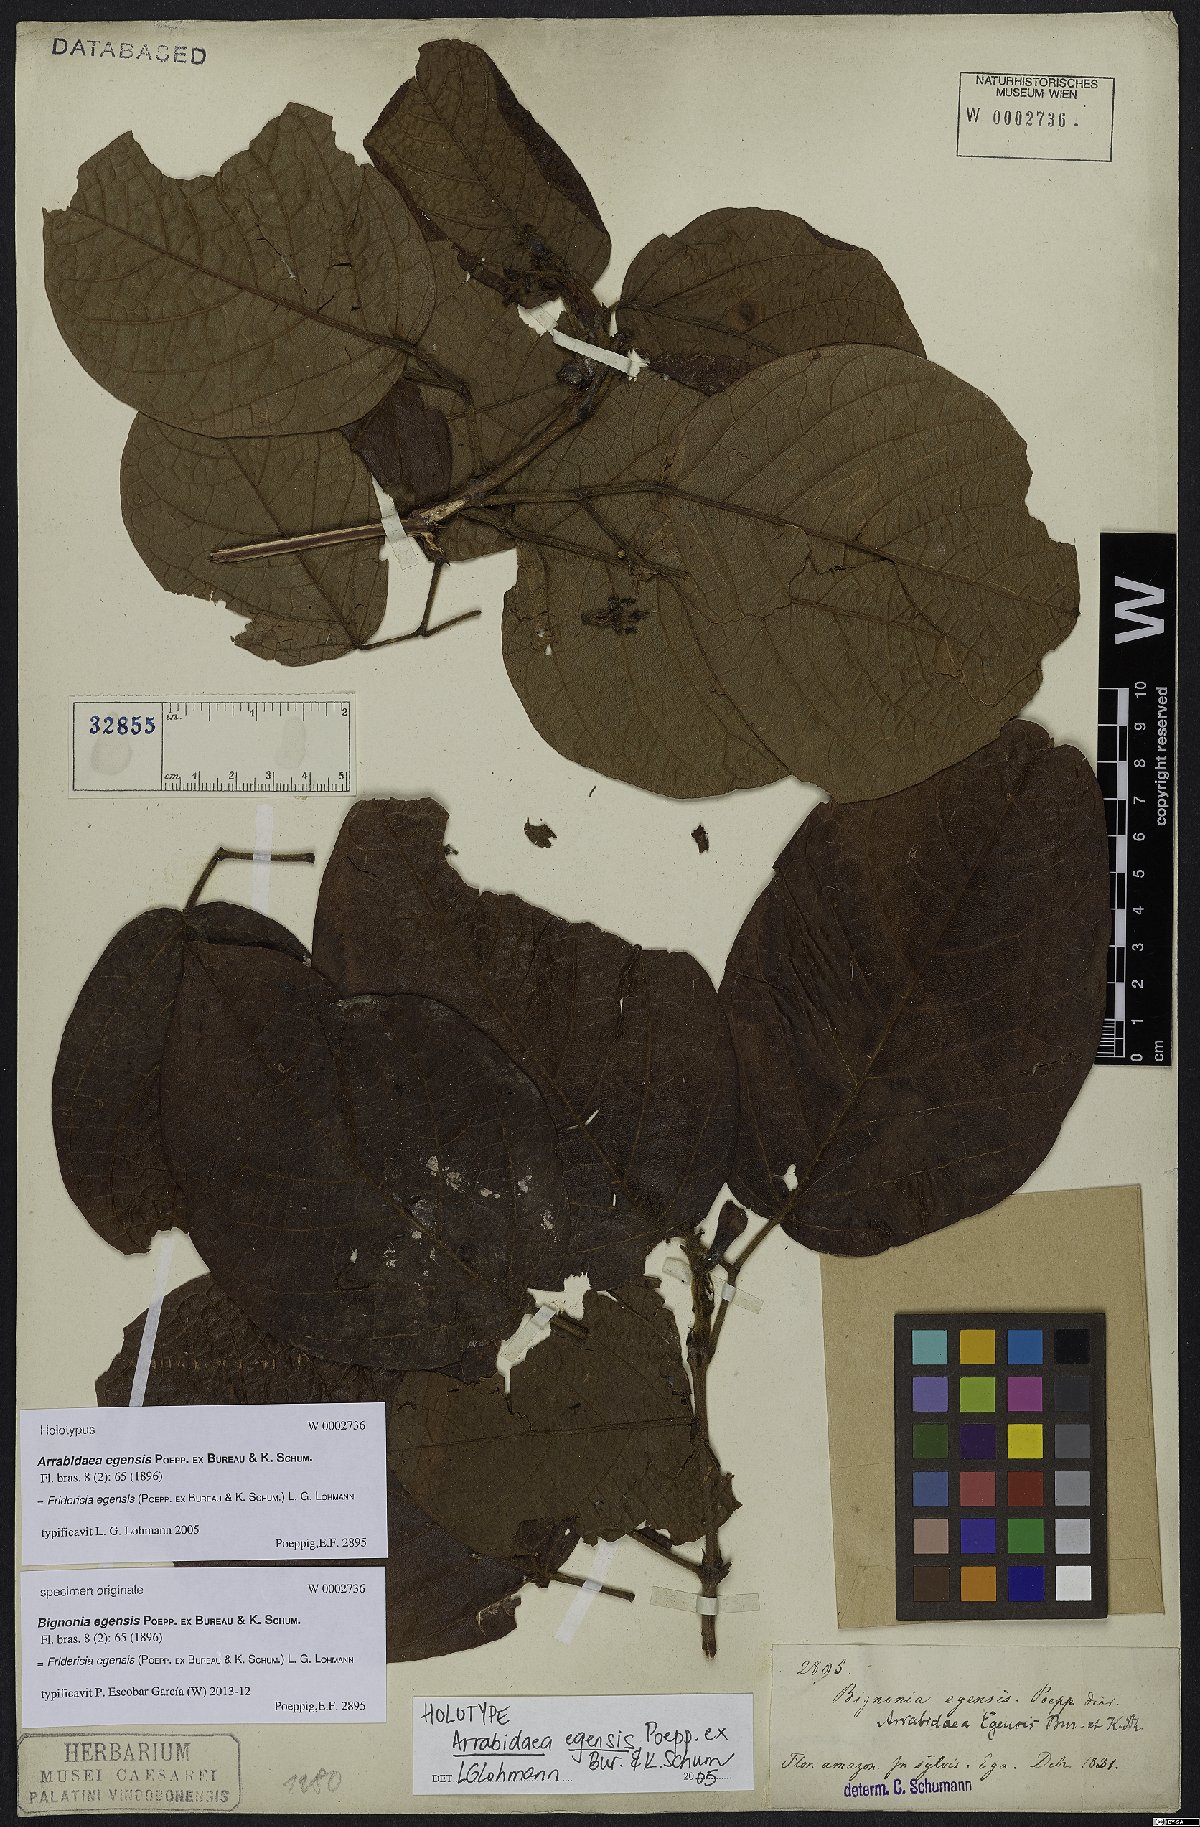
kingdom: Plantae
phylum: Tracheophyta
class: Magnoliopsida
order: Lamiales
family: Bignoniaceae
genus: Fridericia
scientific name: Fridericia egensis
